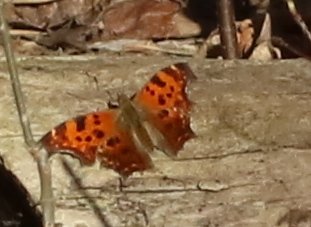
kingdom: Animalia
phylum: Arthropoda
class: Insecta
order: Lepidoptera
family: Nymphalidae
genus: Polygonia
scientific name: Polygonia
